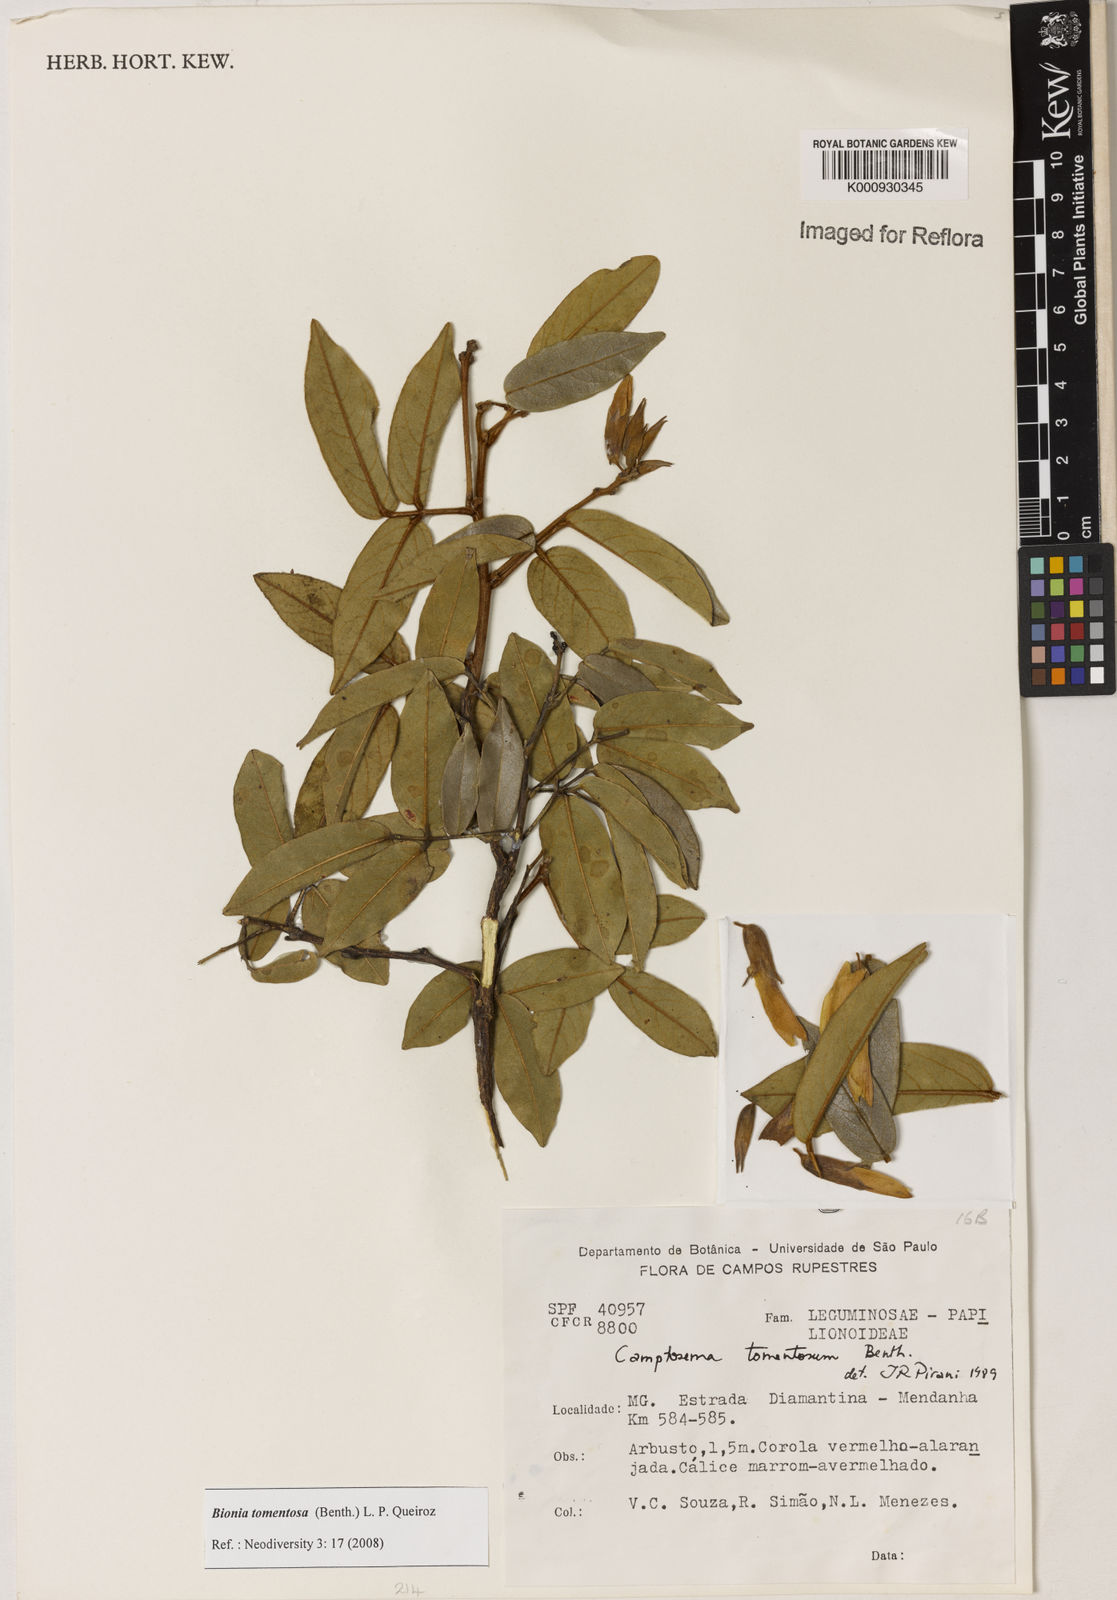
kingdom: Plantae
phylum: Tracheophyta
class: Magnoliopsida
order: Fabales
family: Fabaceae
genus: Camptosema
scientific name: Camptosema tomentosum
